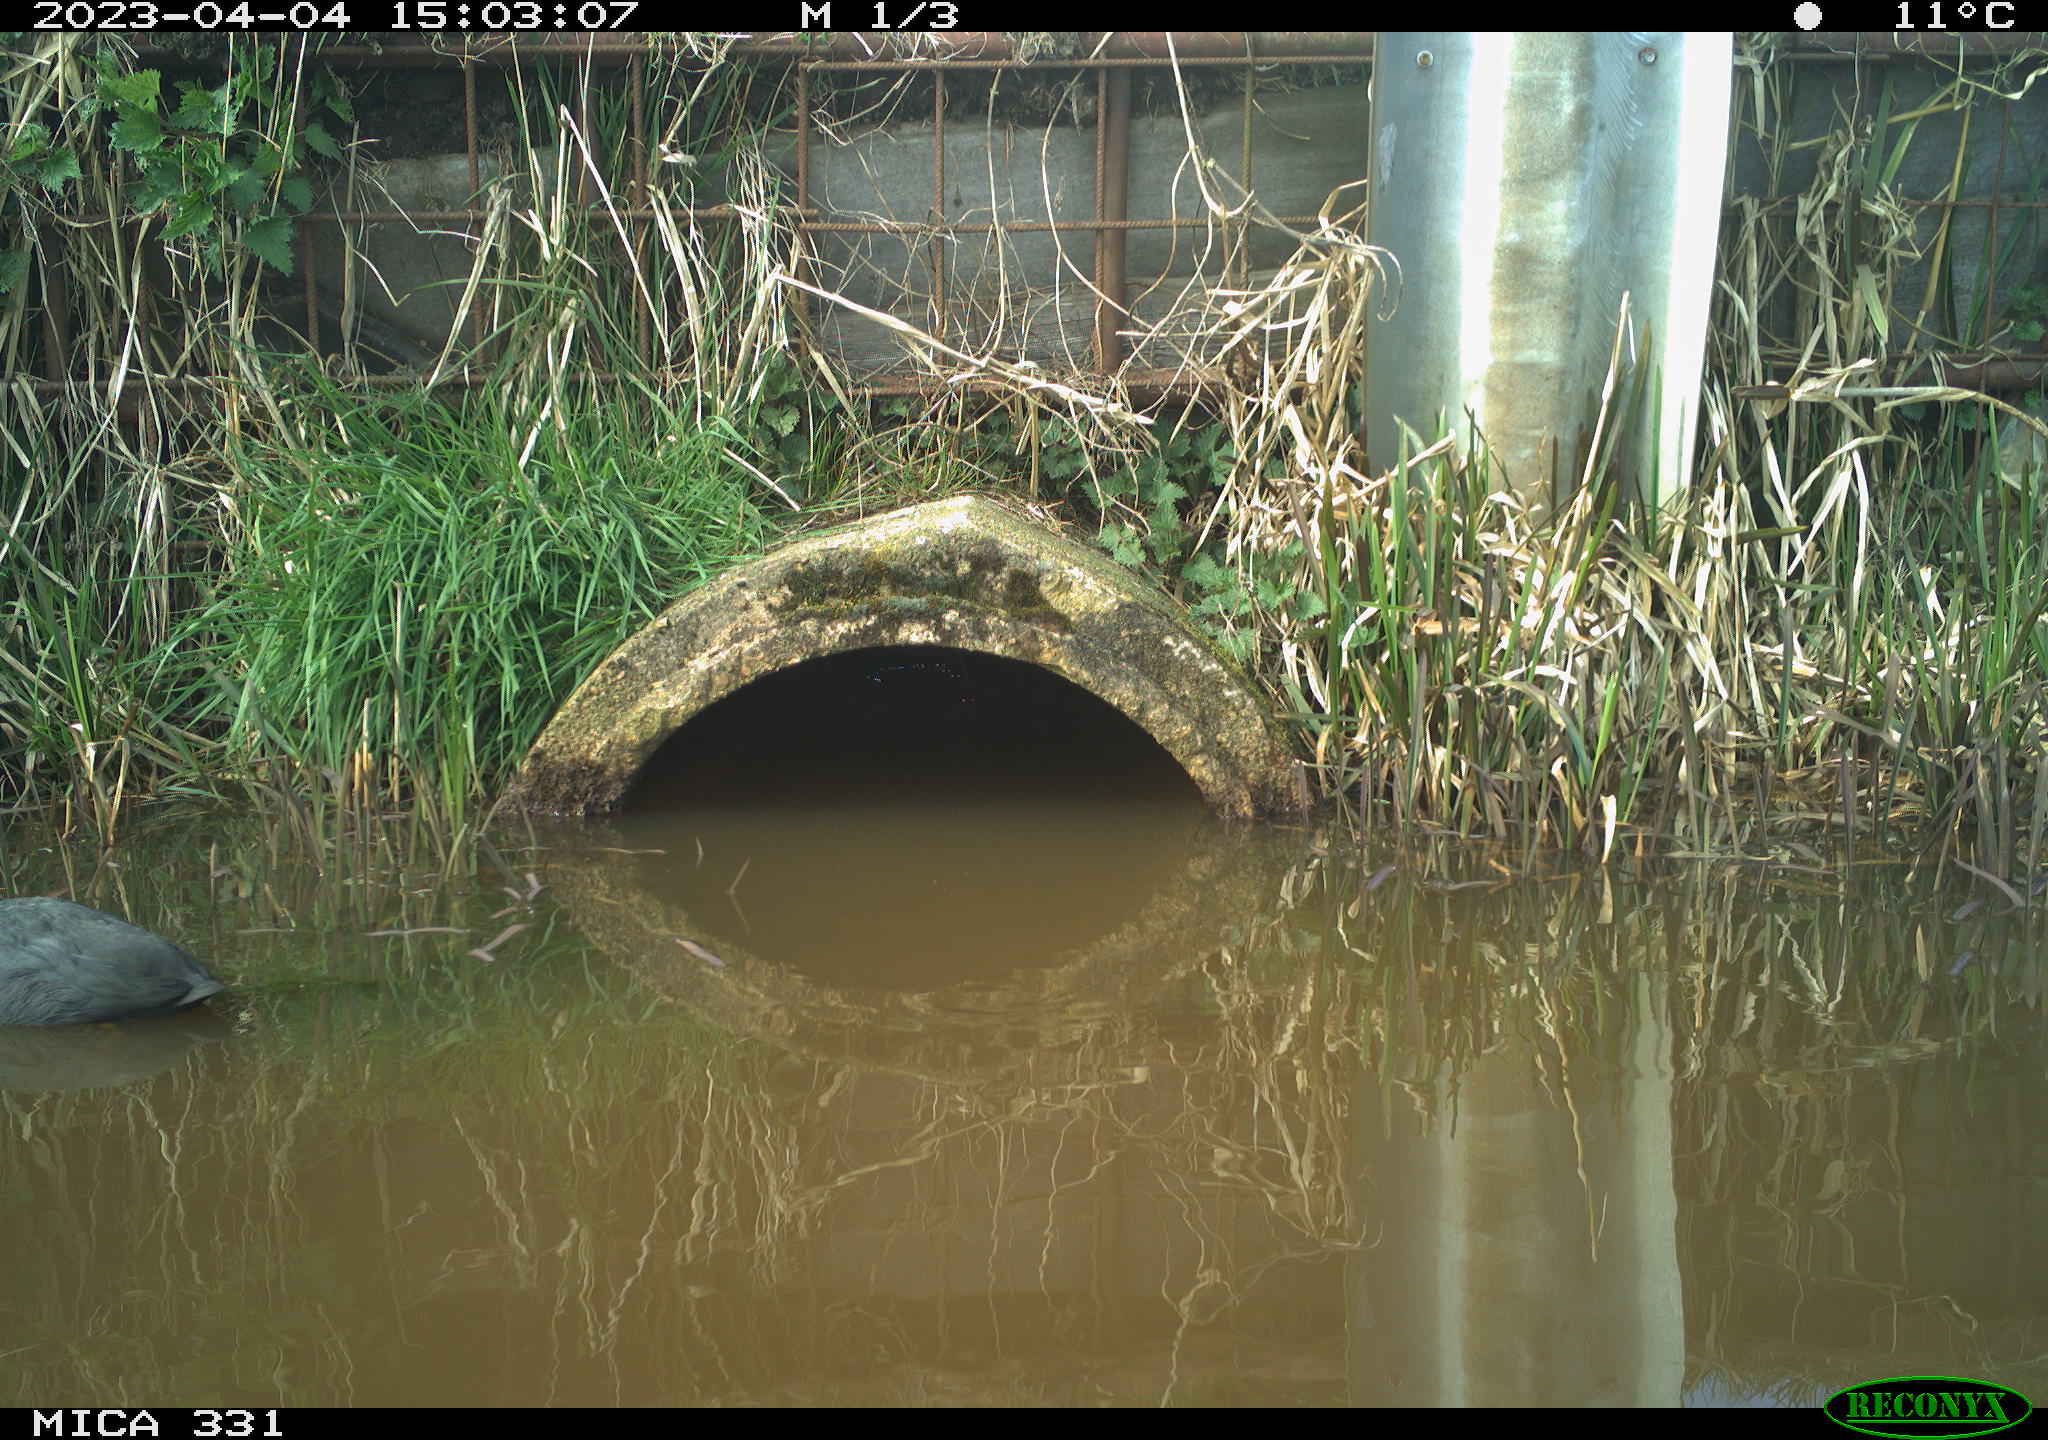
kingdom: Animalia
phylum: Chordata
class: Aves
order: Gruiformes
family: Rallidae
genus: Fulica
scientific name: Fulica atra
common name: Eurasian coot
